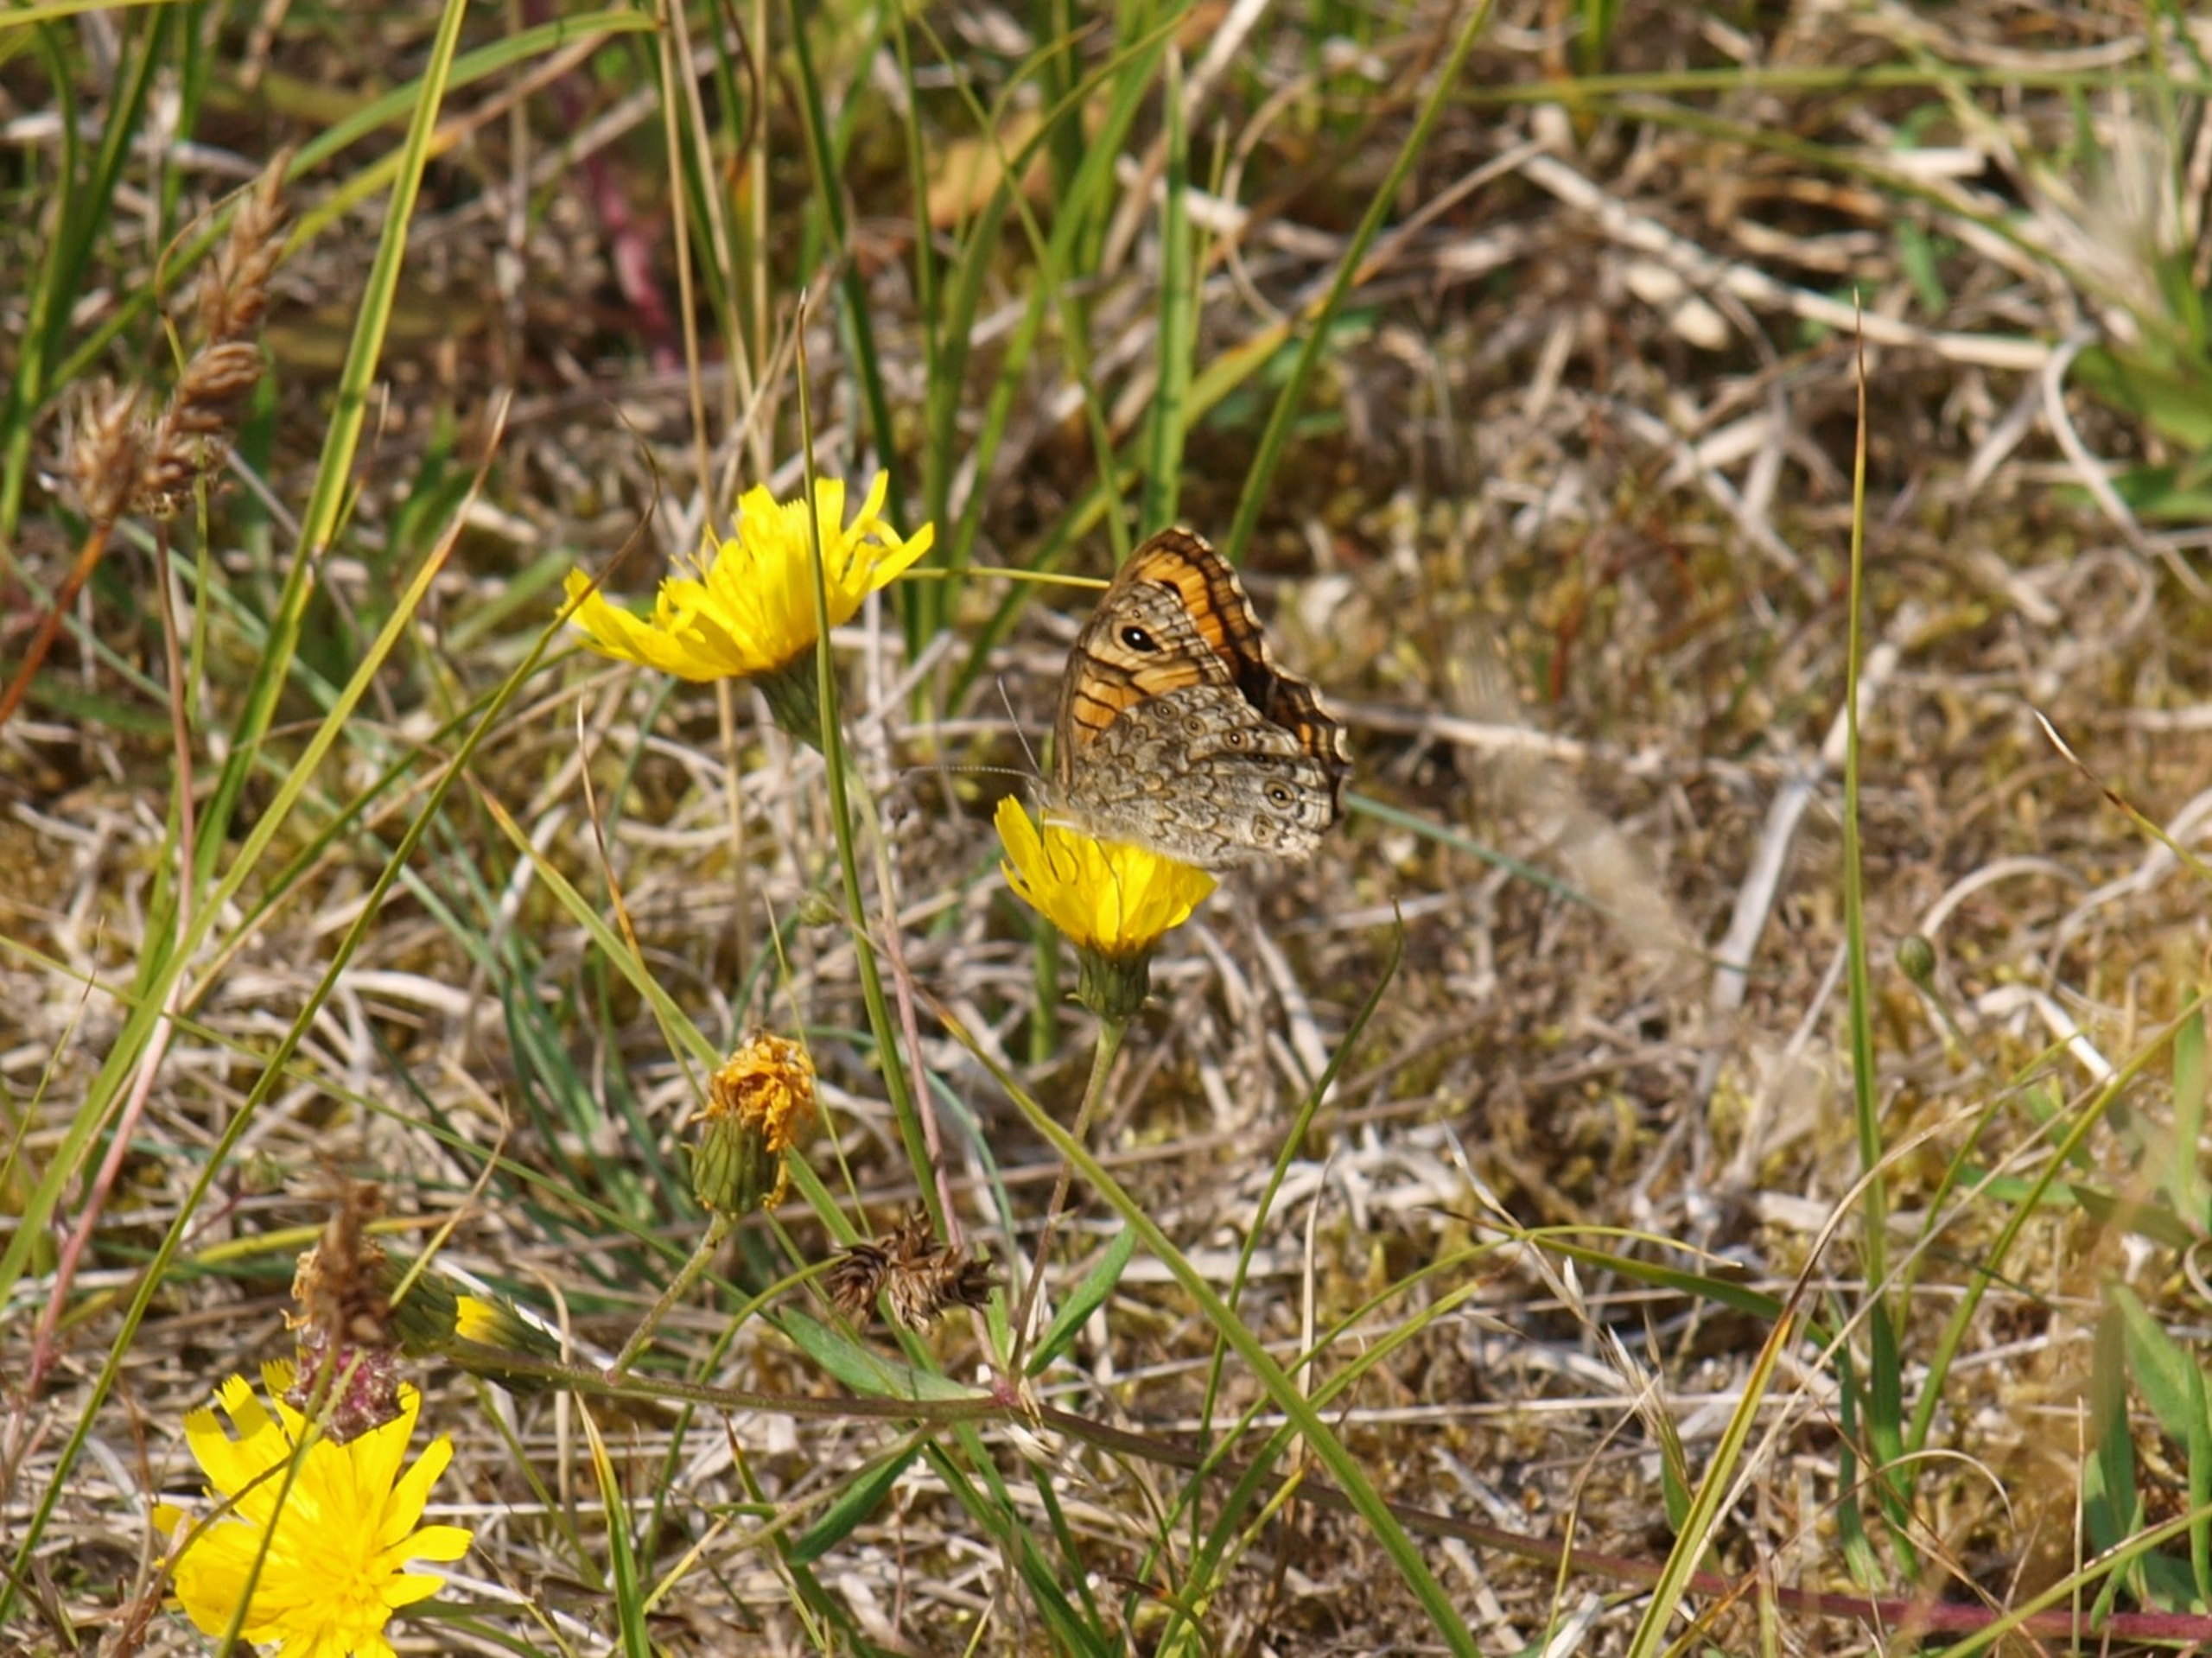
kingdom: Animalia
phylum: Arthropoda
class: Insecta
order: Lepidoptera
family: Nymphalidae
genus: Pararge
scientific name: Pararge Lasiommata megera
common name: Vejrandøje
